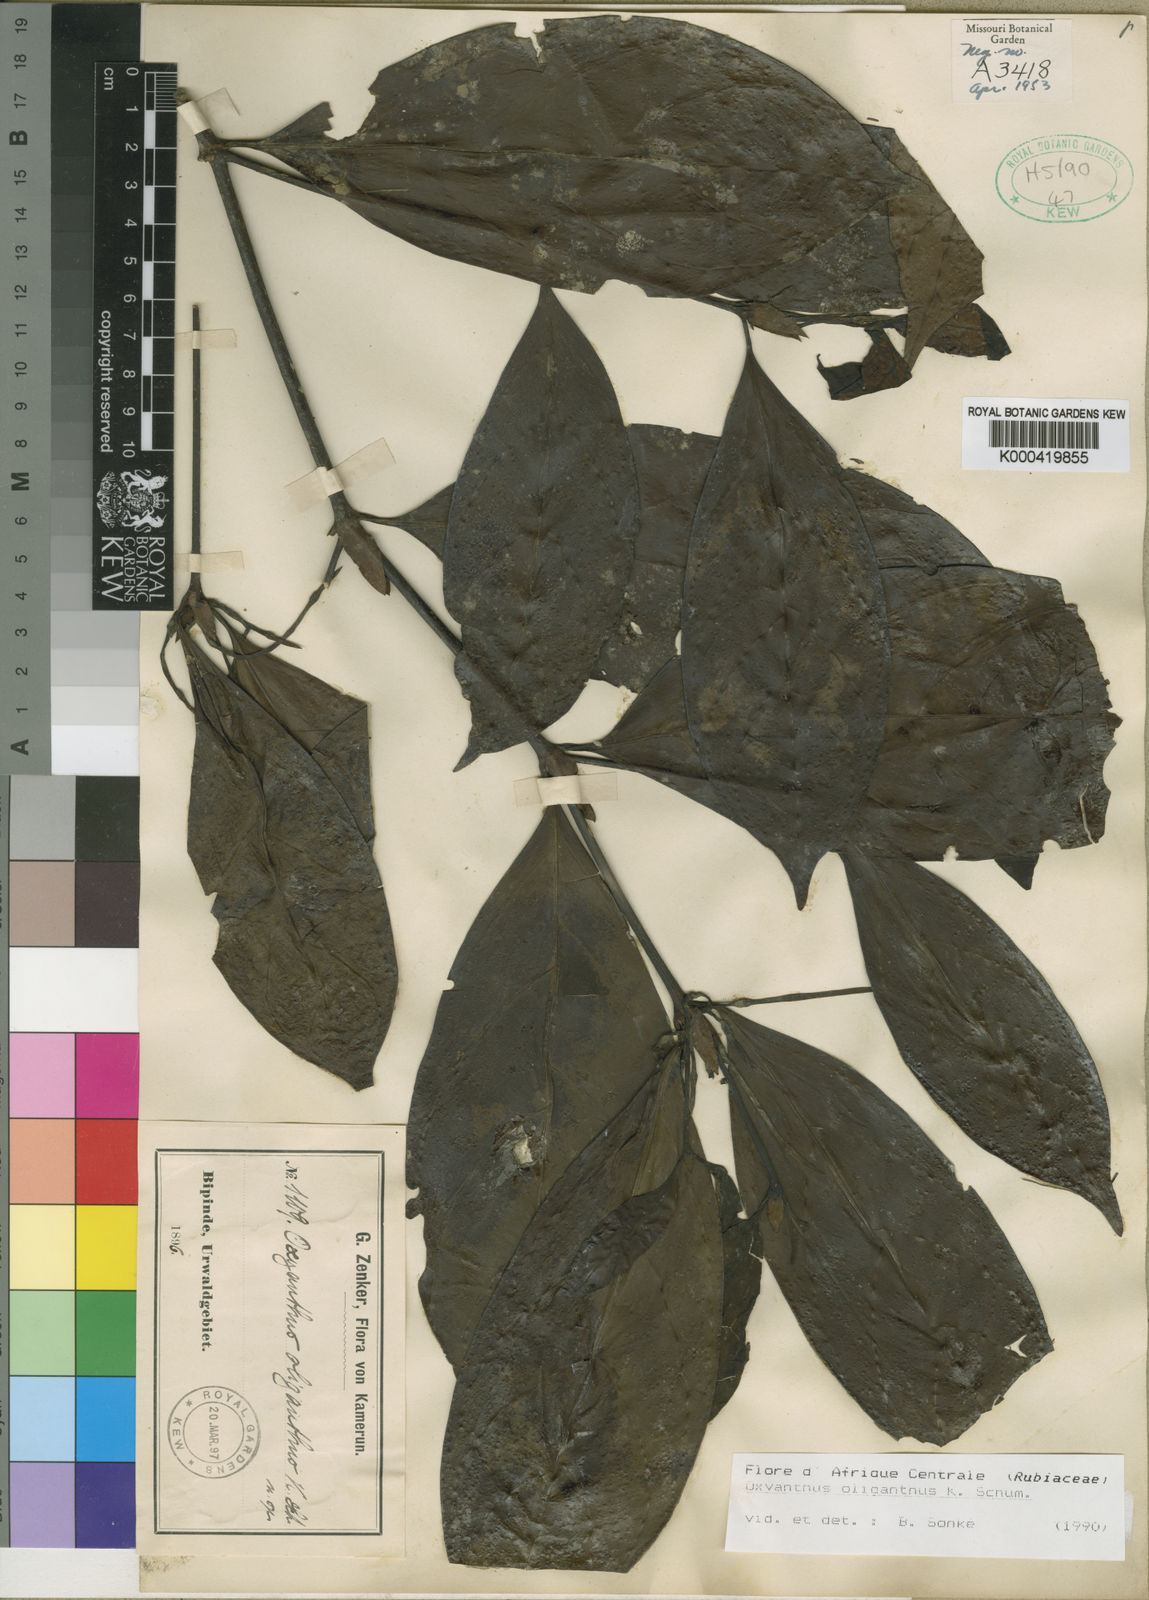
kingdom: Plantae
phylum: Tracheophyta
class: Magnoliopsida
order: Gentianales
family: Rubiaceae
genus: Oxyanthus
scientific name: Oxyanthus oliganthus
